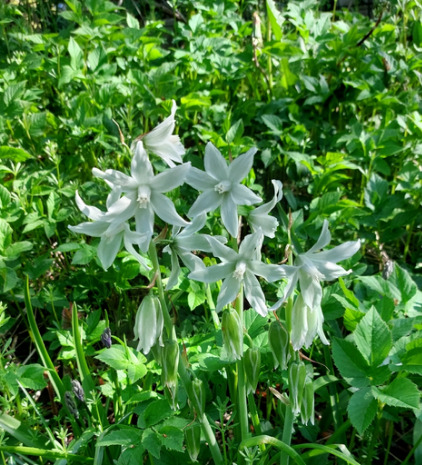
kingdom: Plantae
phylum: Tracheophyta
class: Liliopsida
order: Asparagales
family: Asparagaceae
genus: Ornithogalum
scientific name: Ornithogalum nutans
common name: Nikkende fuglemælk
